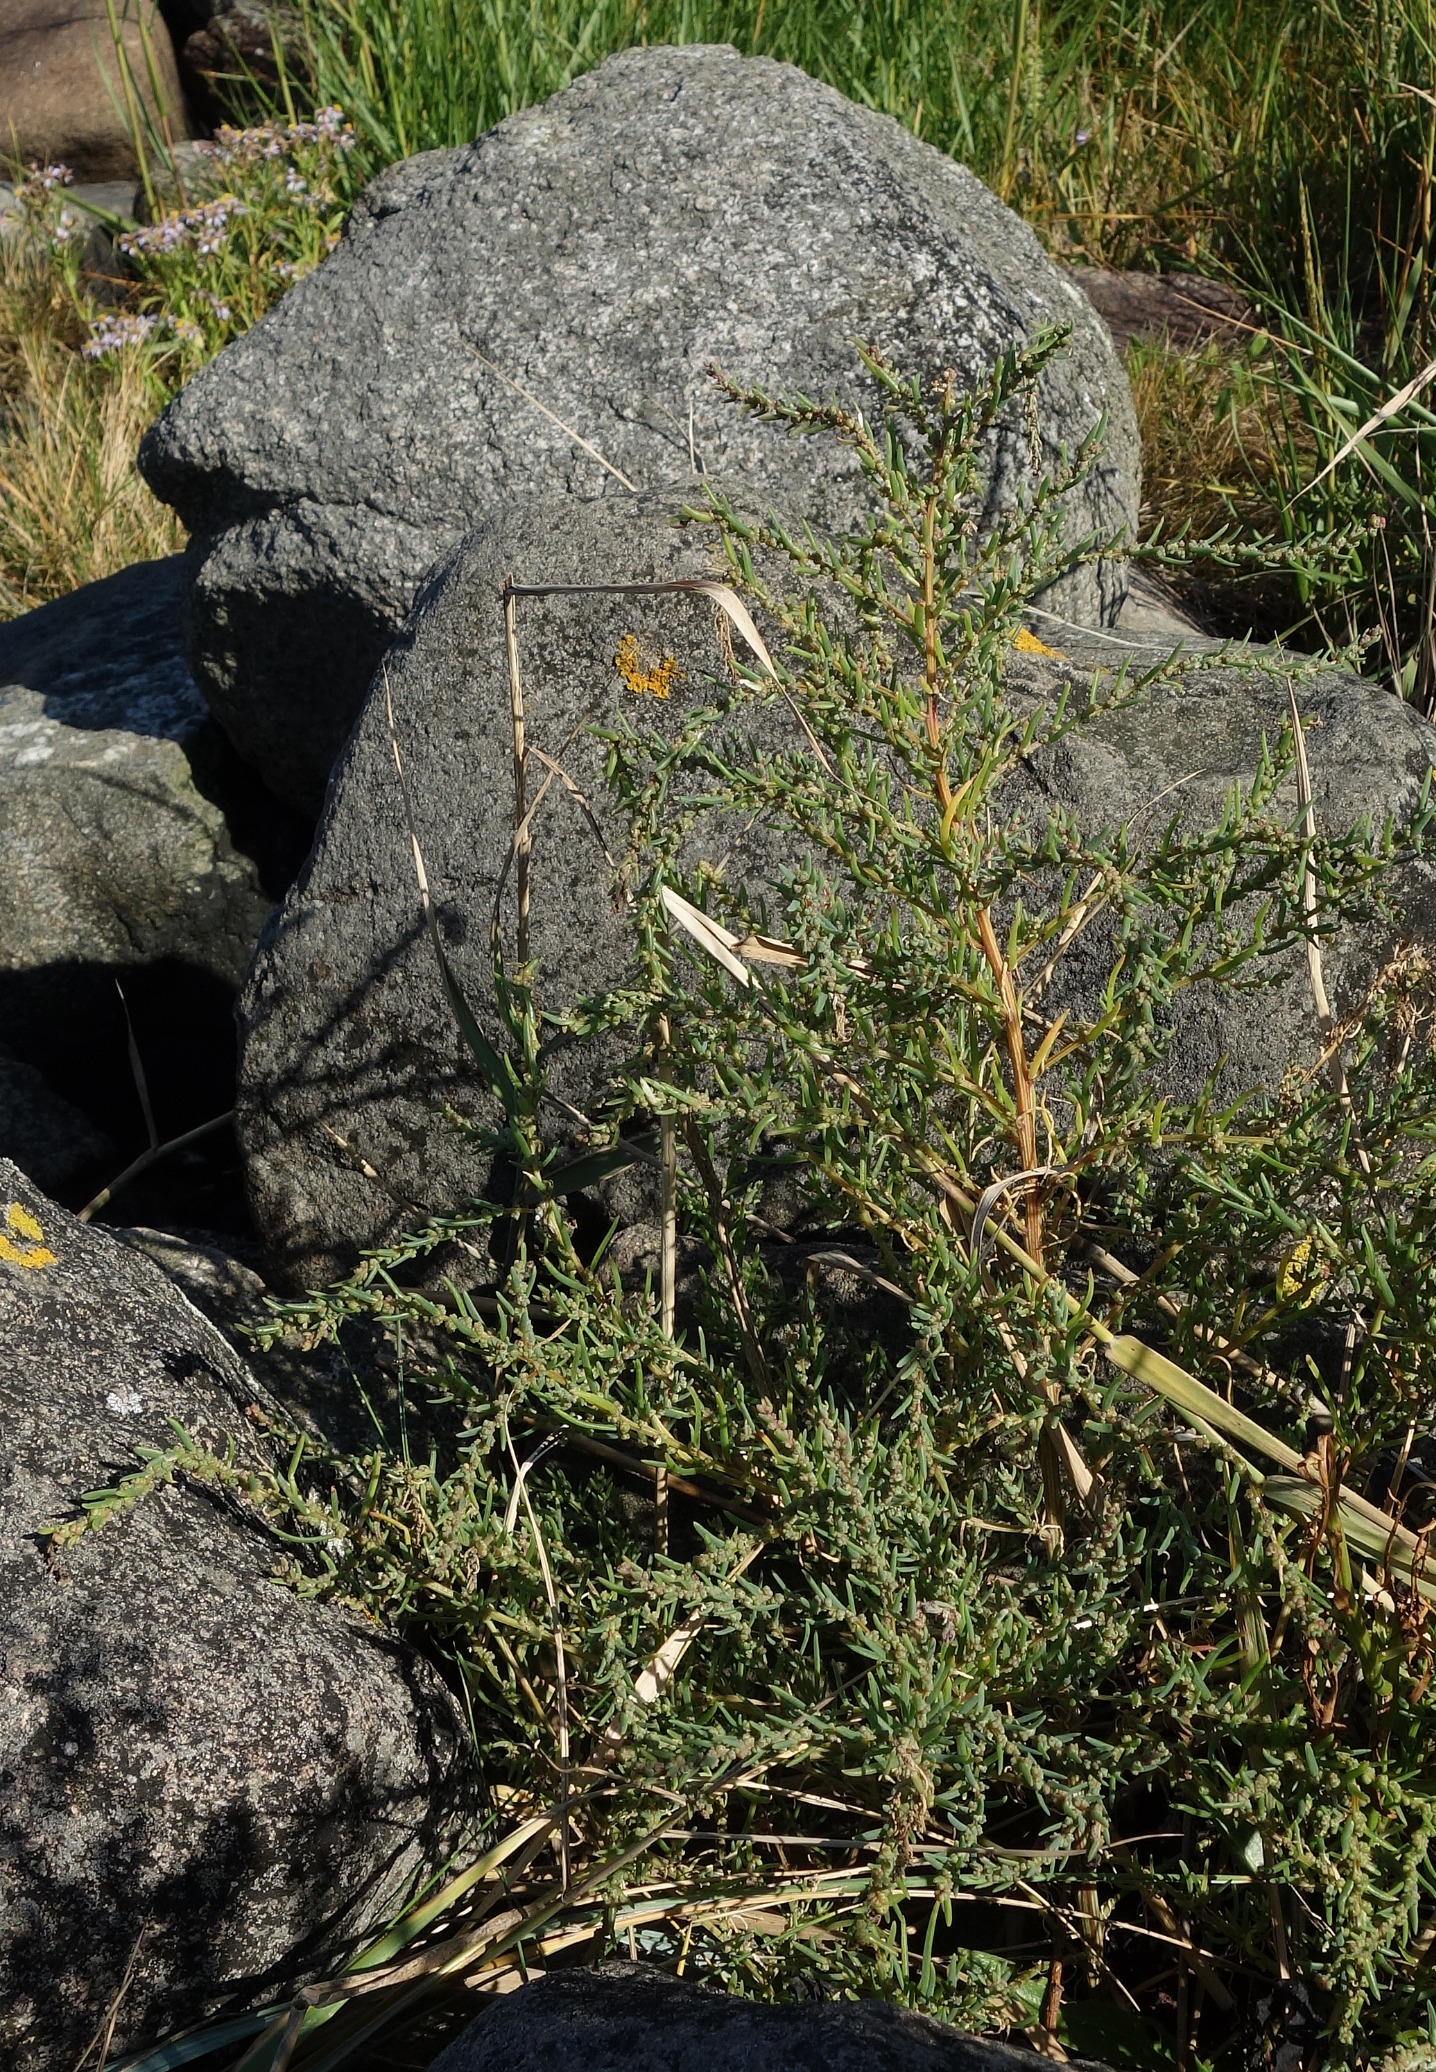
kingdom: Plantae
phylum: Tracheophyta
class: Magnoliopsida
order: Caryophyllales
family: Amaranthaceae
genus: Suaeda
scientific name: Suaeda maritima
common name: Strandgåsefod
